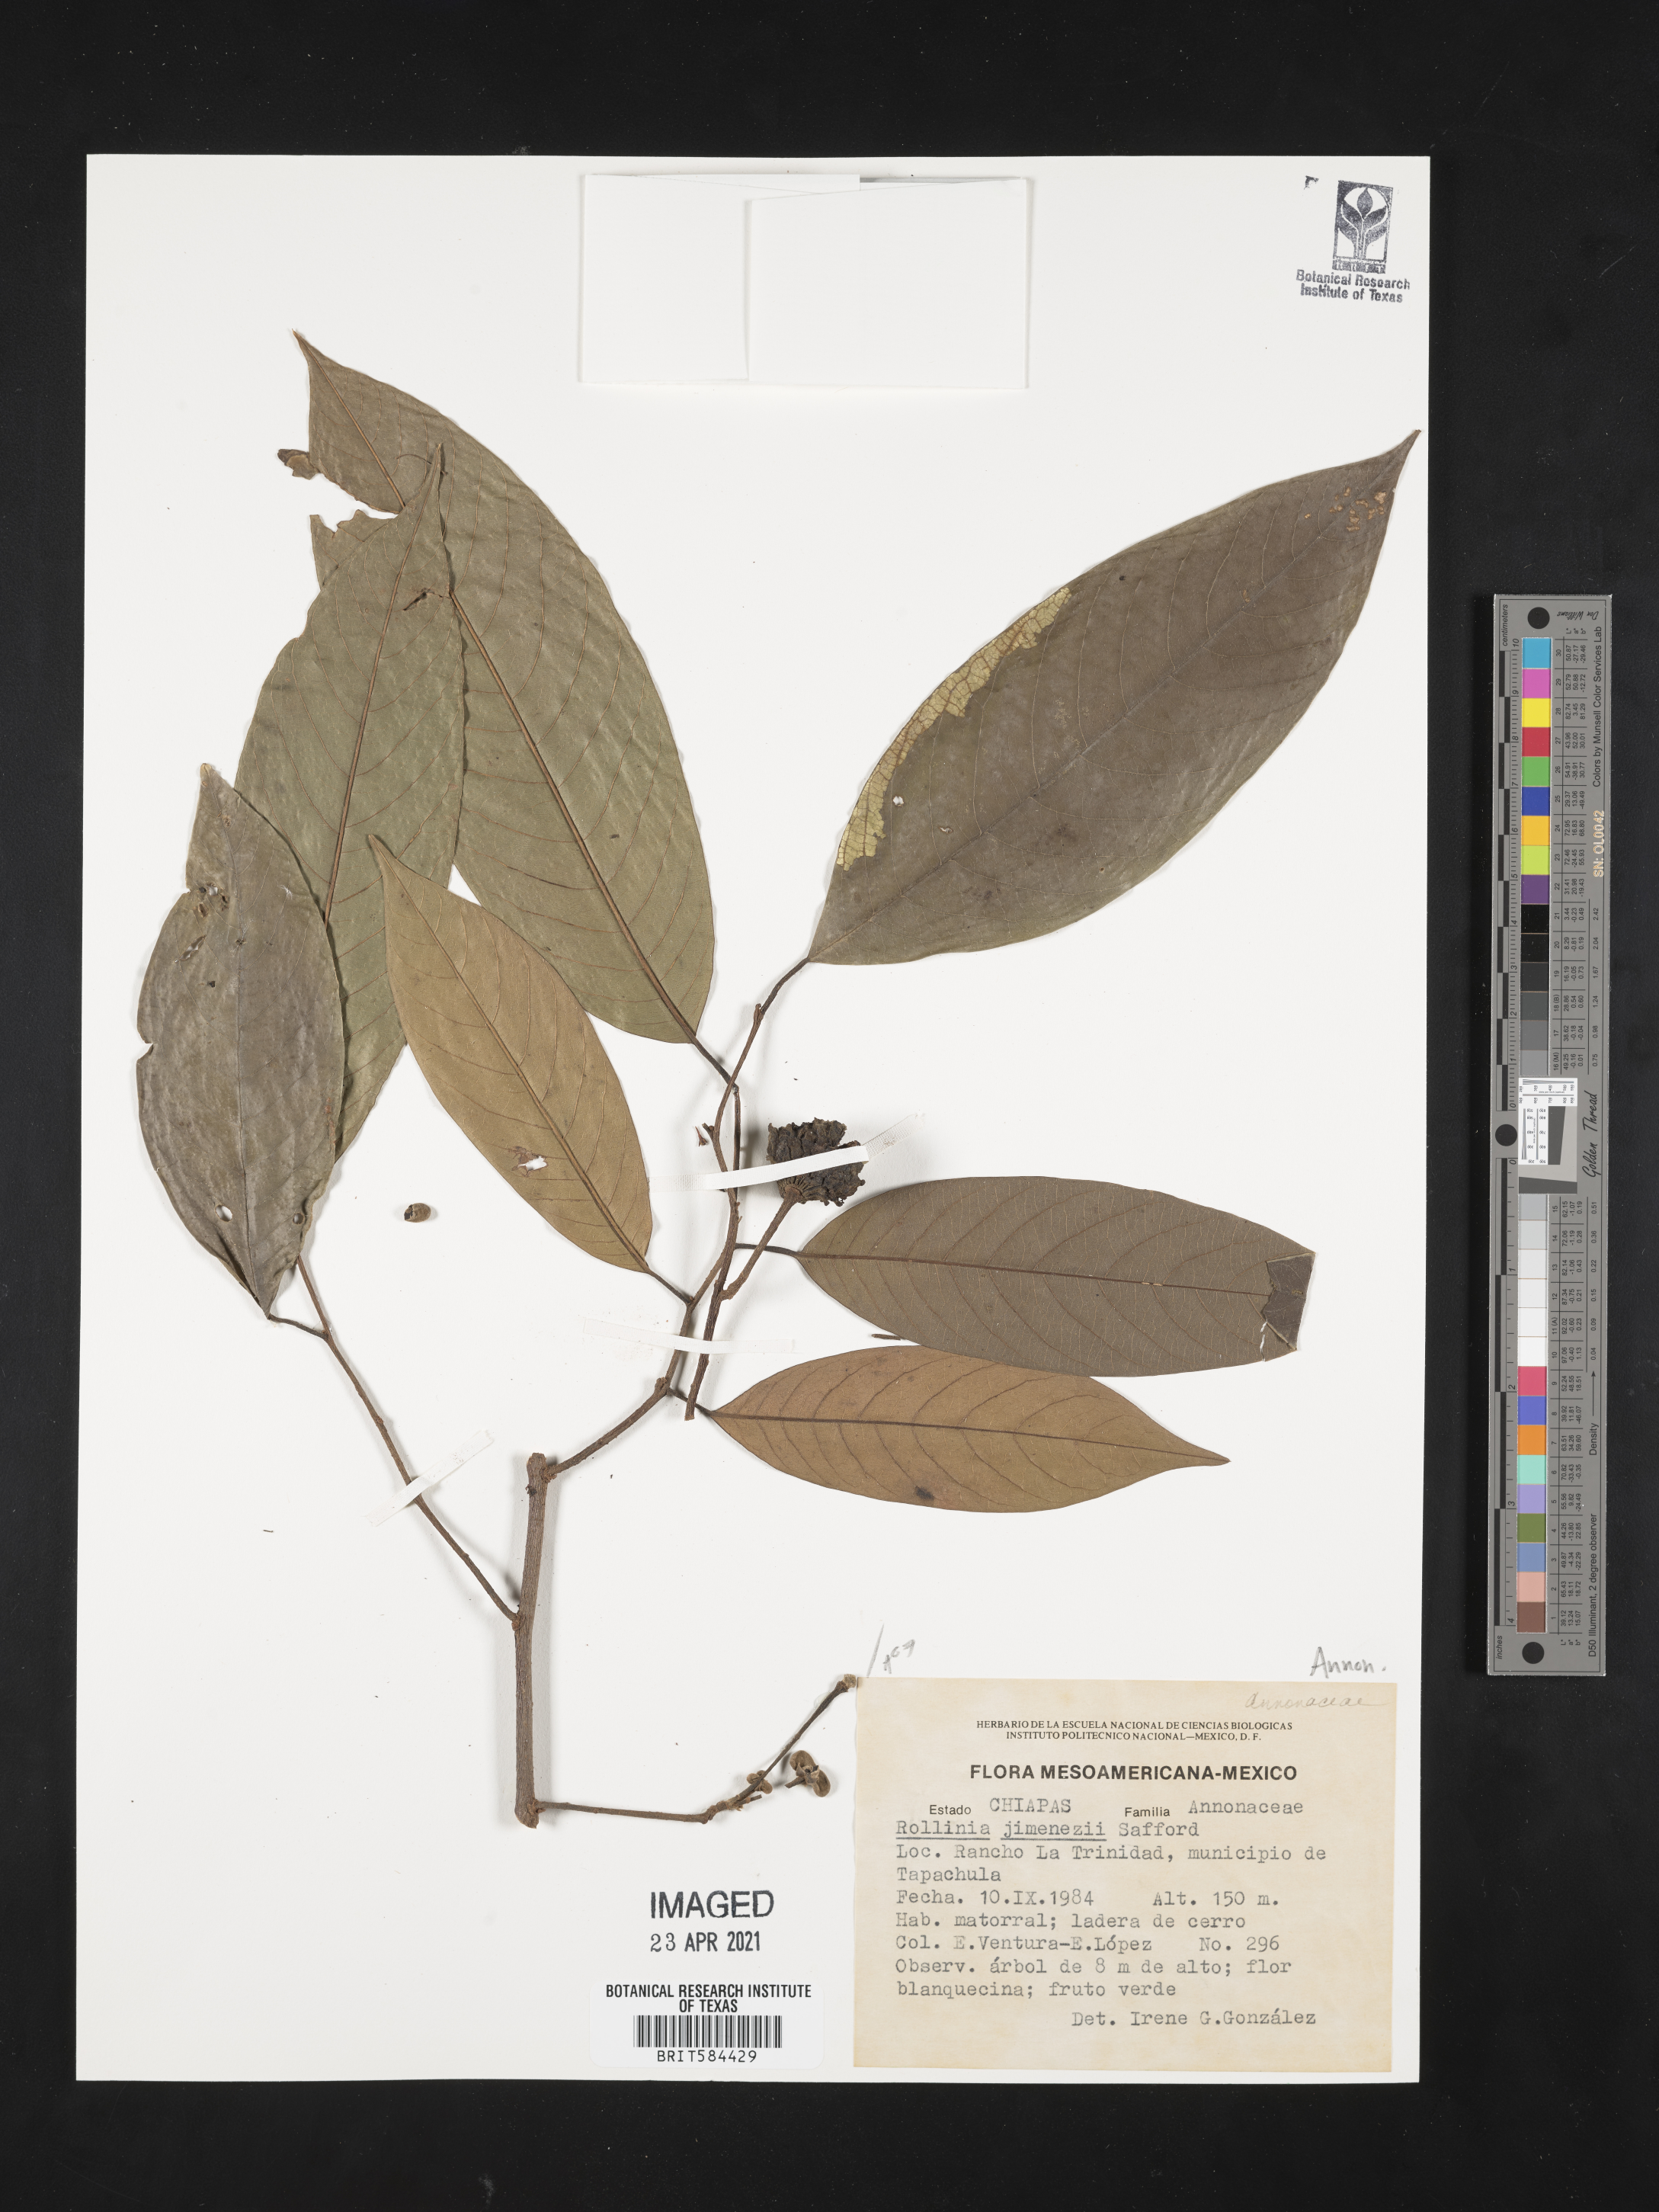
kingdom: Plantae
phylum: Tracheophyta
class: Magnoliopsida
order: Magnoliales
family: Annonaceae
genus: Annona
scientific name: Annona mucosa
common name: Sugar apple
